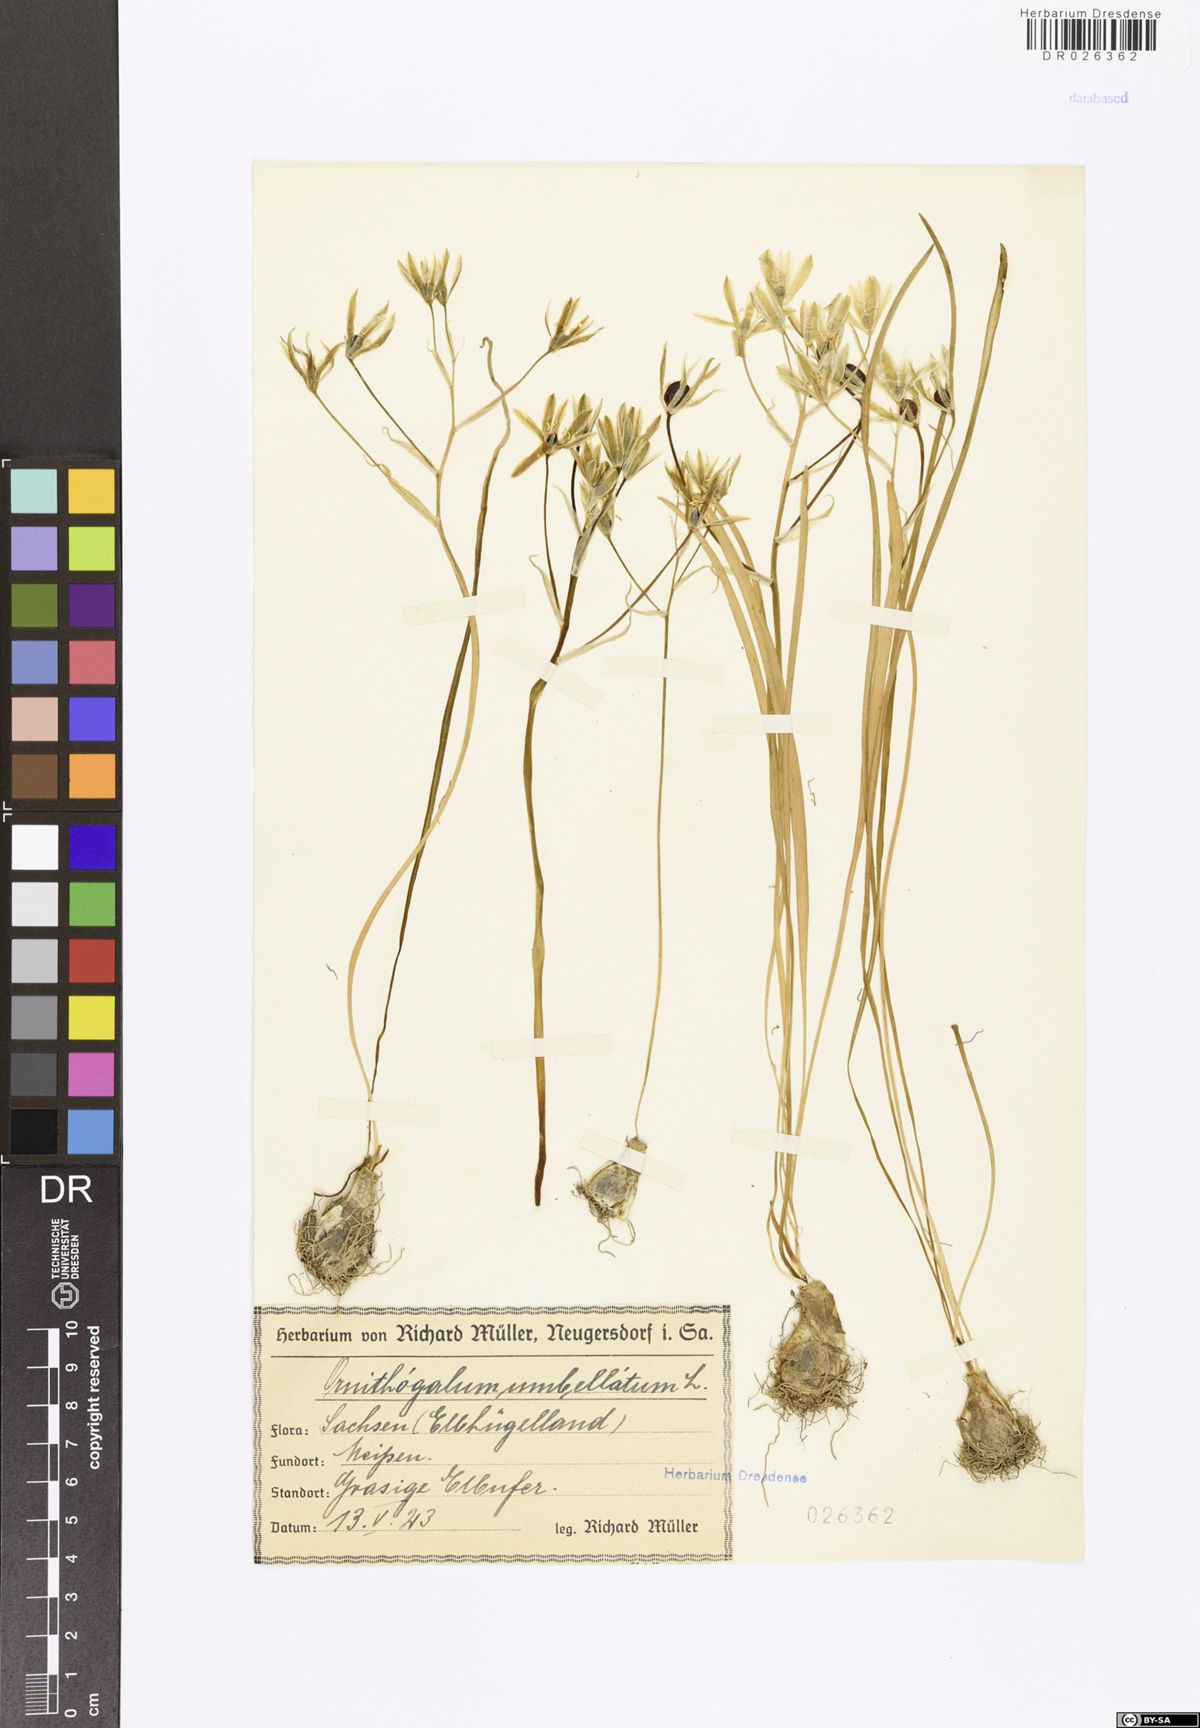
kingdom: Plantae
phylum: Tracheophyta
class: Liliopsida
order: Asparagales
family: Asparagaceae
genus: Ornithogalum
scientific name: Ornithogalum umbellatum
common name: Garden star-of-bethlehem
